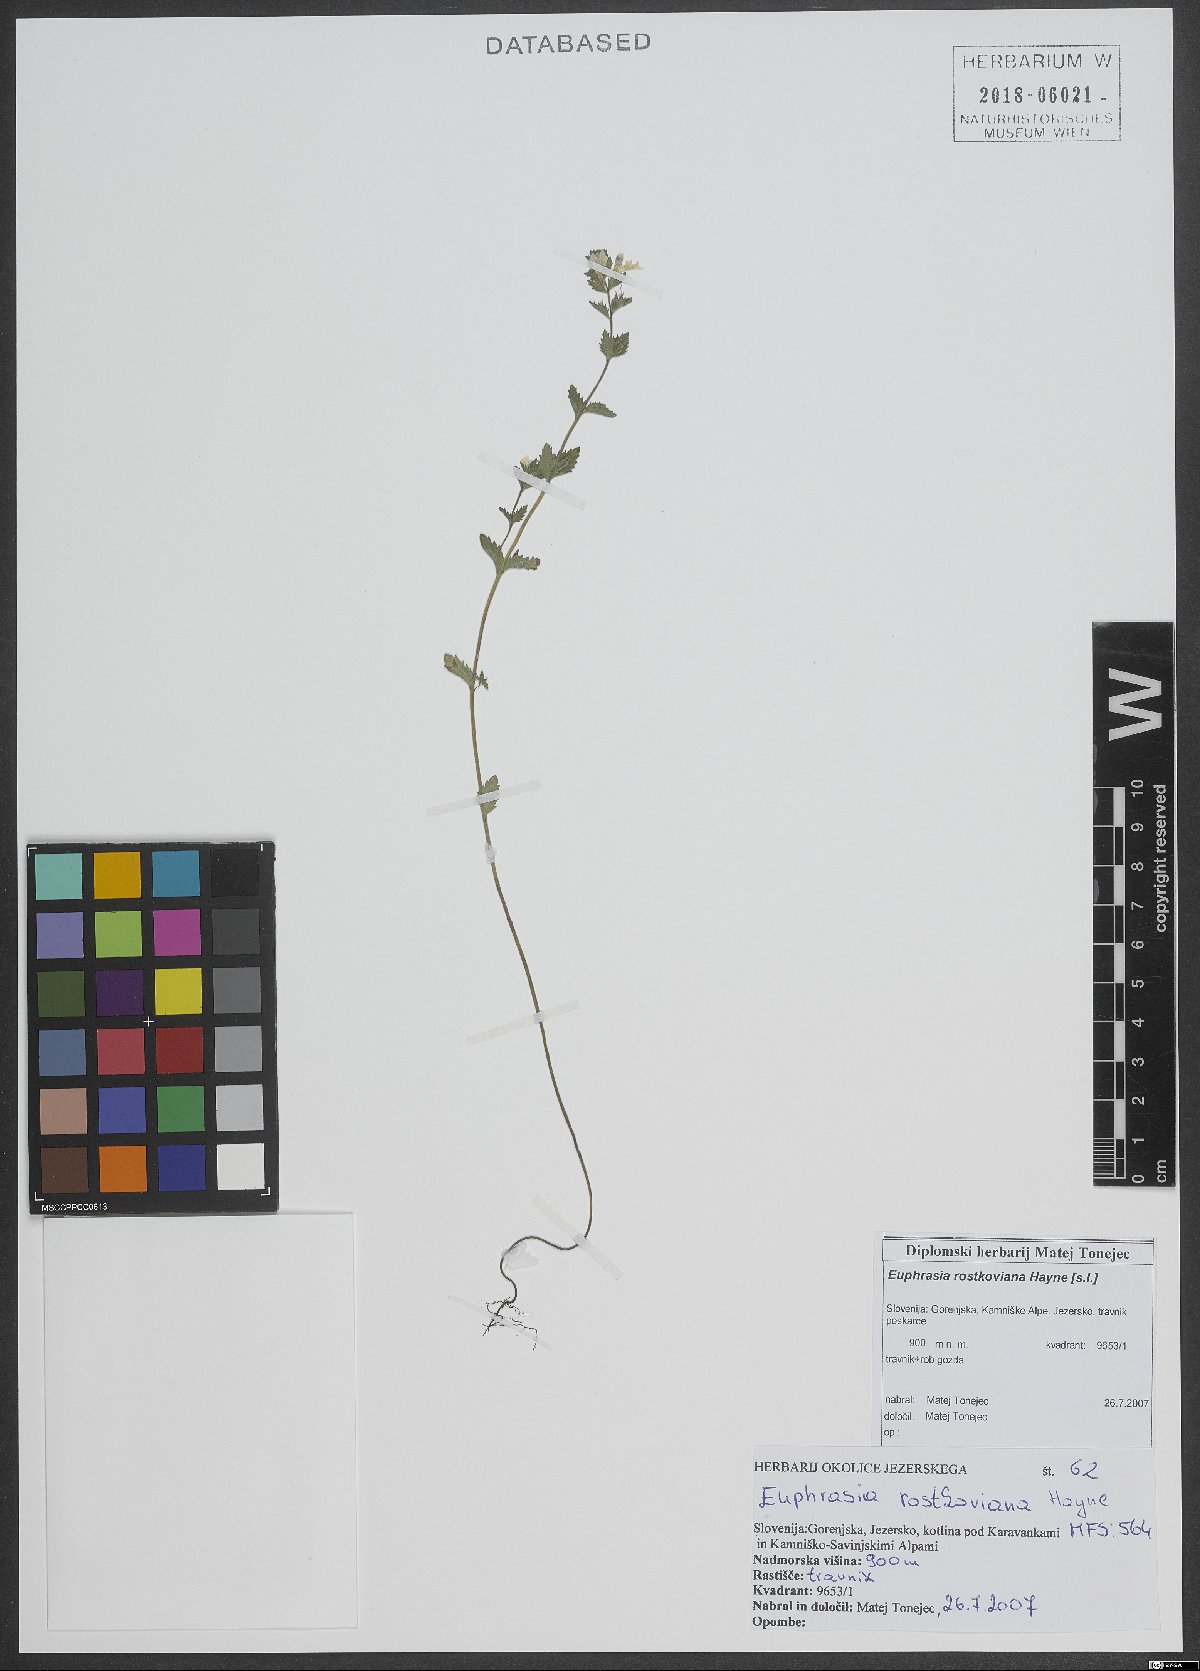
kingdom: Plantae
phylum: Tracheophyta
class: Magnoliopsida
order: Lamiales
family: Orobanchaceae
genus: Euphrasia
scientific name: Euphrasia officinalis
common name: Eyebright
